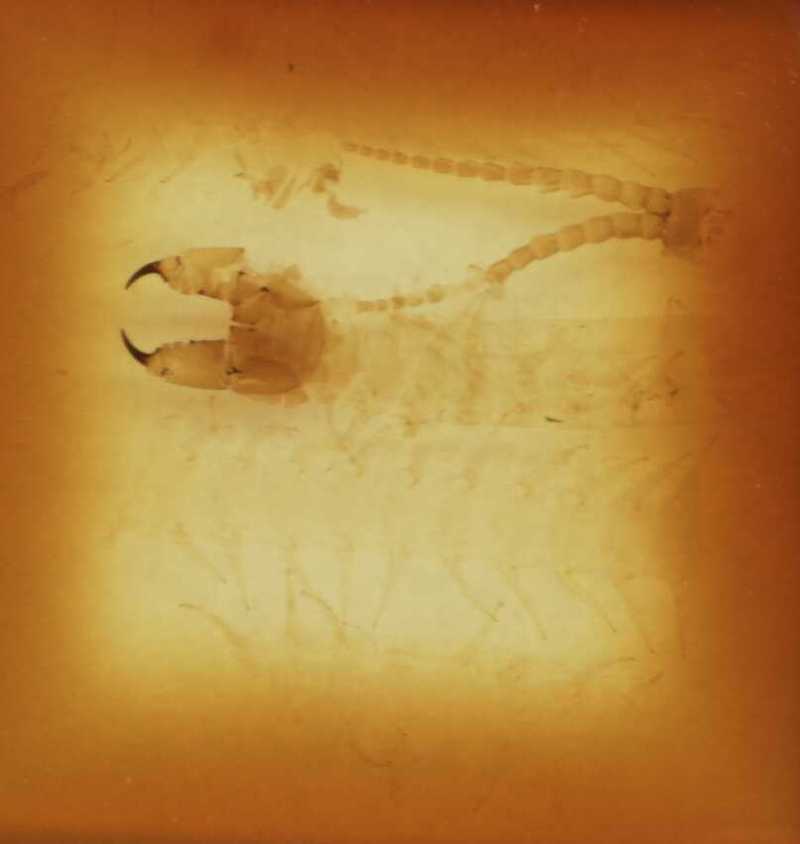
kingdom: Animalia
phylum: Arthropoda
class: Chilopoda
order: Geophilomorpha
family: Geophilidae
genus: Queenslandophilus
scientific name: Queenslandophilus
